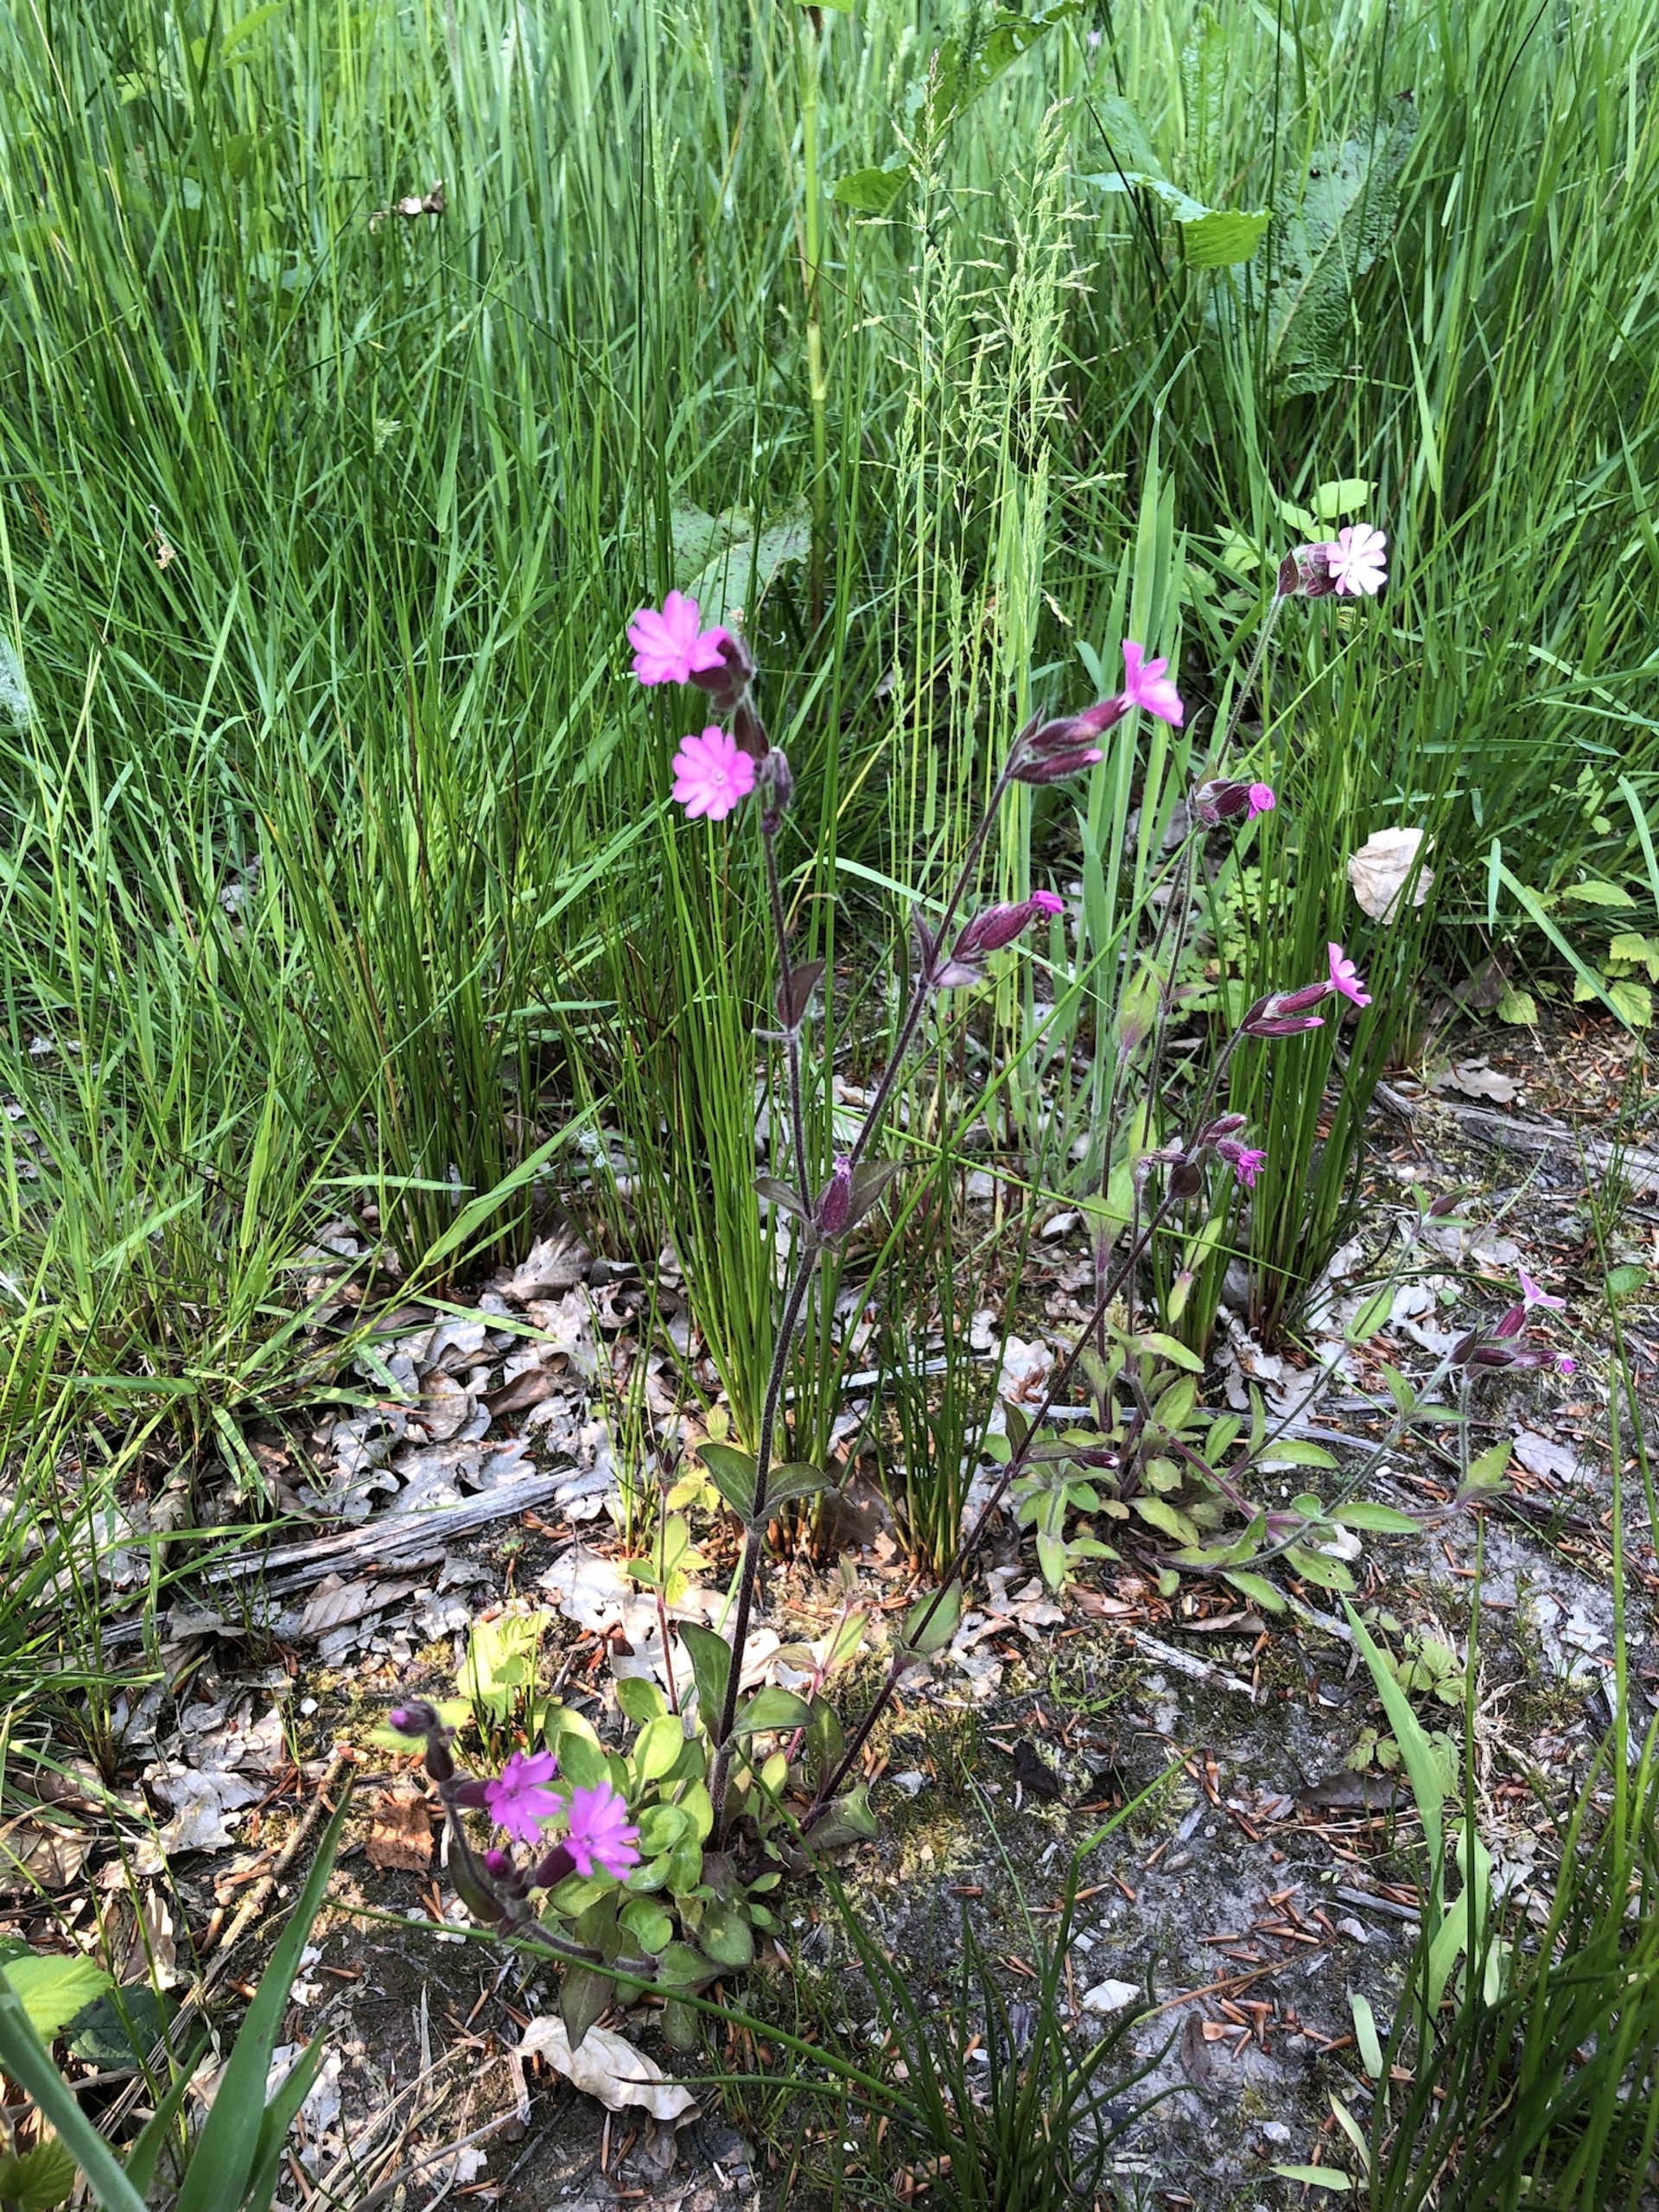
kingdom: Plantae
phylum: Tracheophyta
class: Magnoliopsida
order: Caryophyllales
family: Caryophyllaceae
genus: Silene
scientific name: Silene dioica
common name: Dagpragtstjerne
